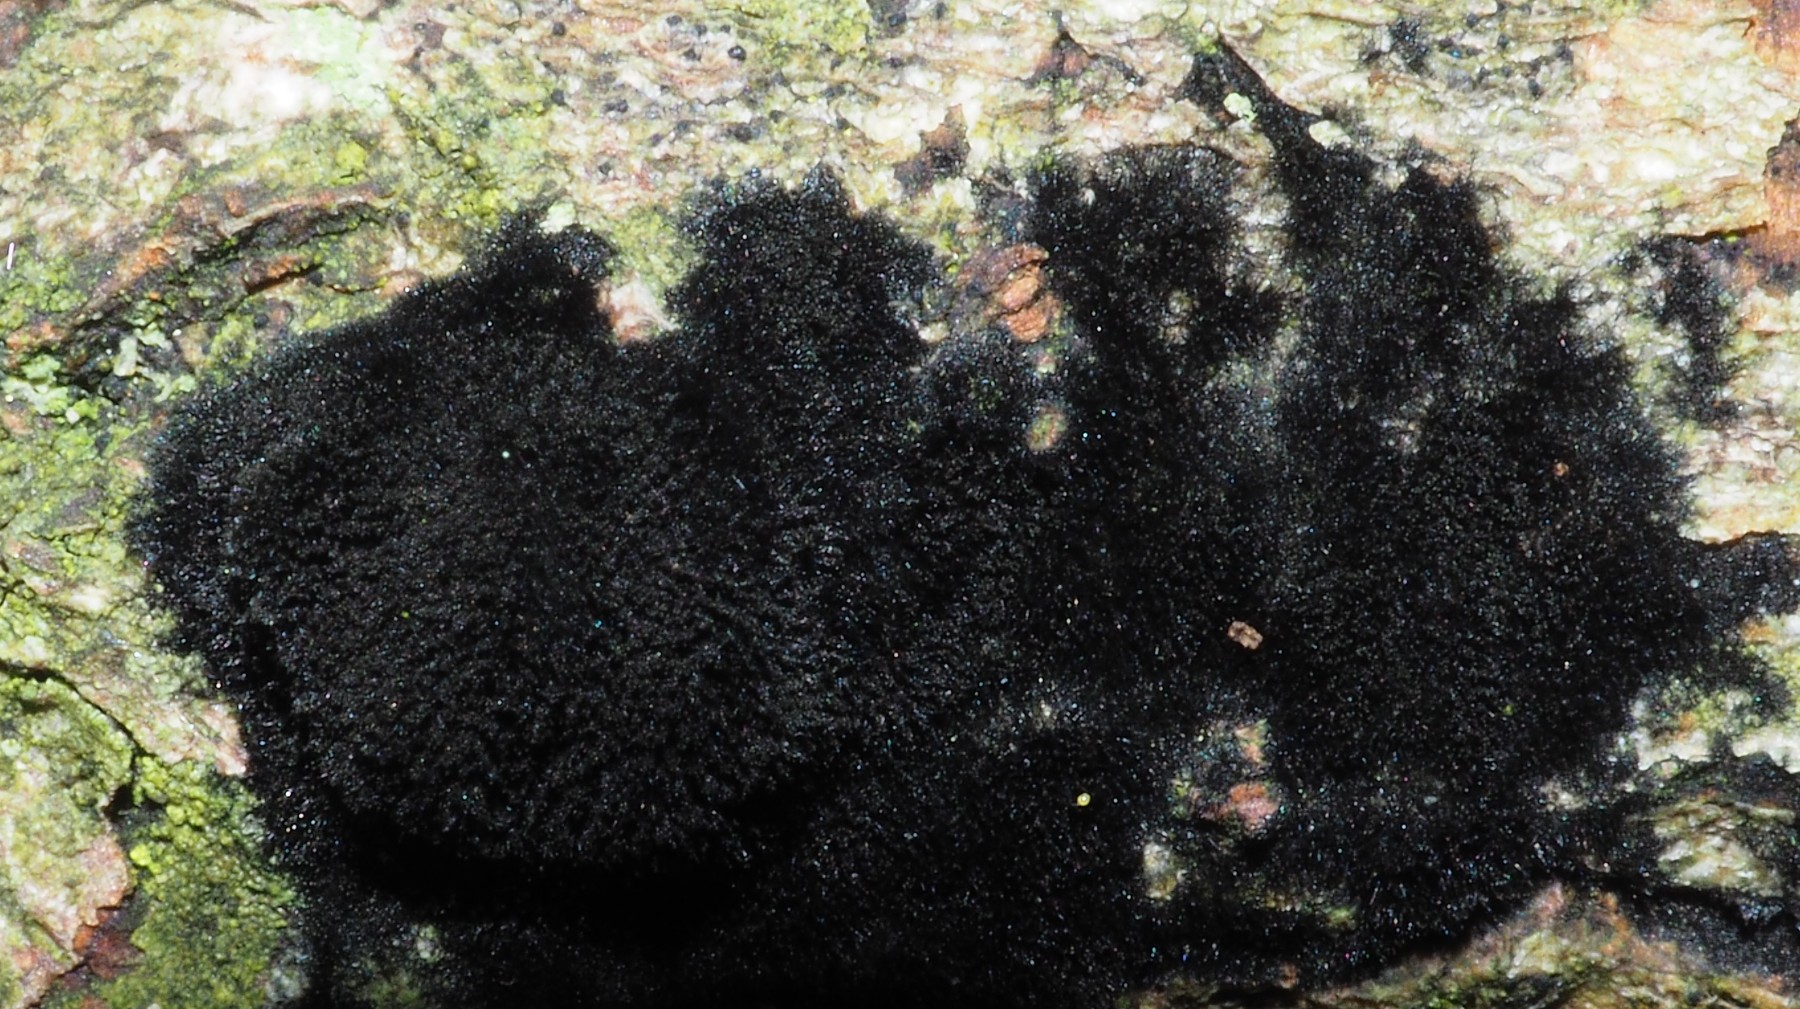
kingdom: Fungi
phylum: Ascomycota
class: Sordariomycetes
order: Coronophorales
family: Chaetosphaerellaceae
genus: Chaetosphaerella
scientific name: Chaetosphaerella phaeostroma
